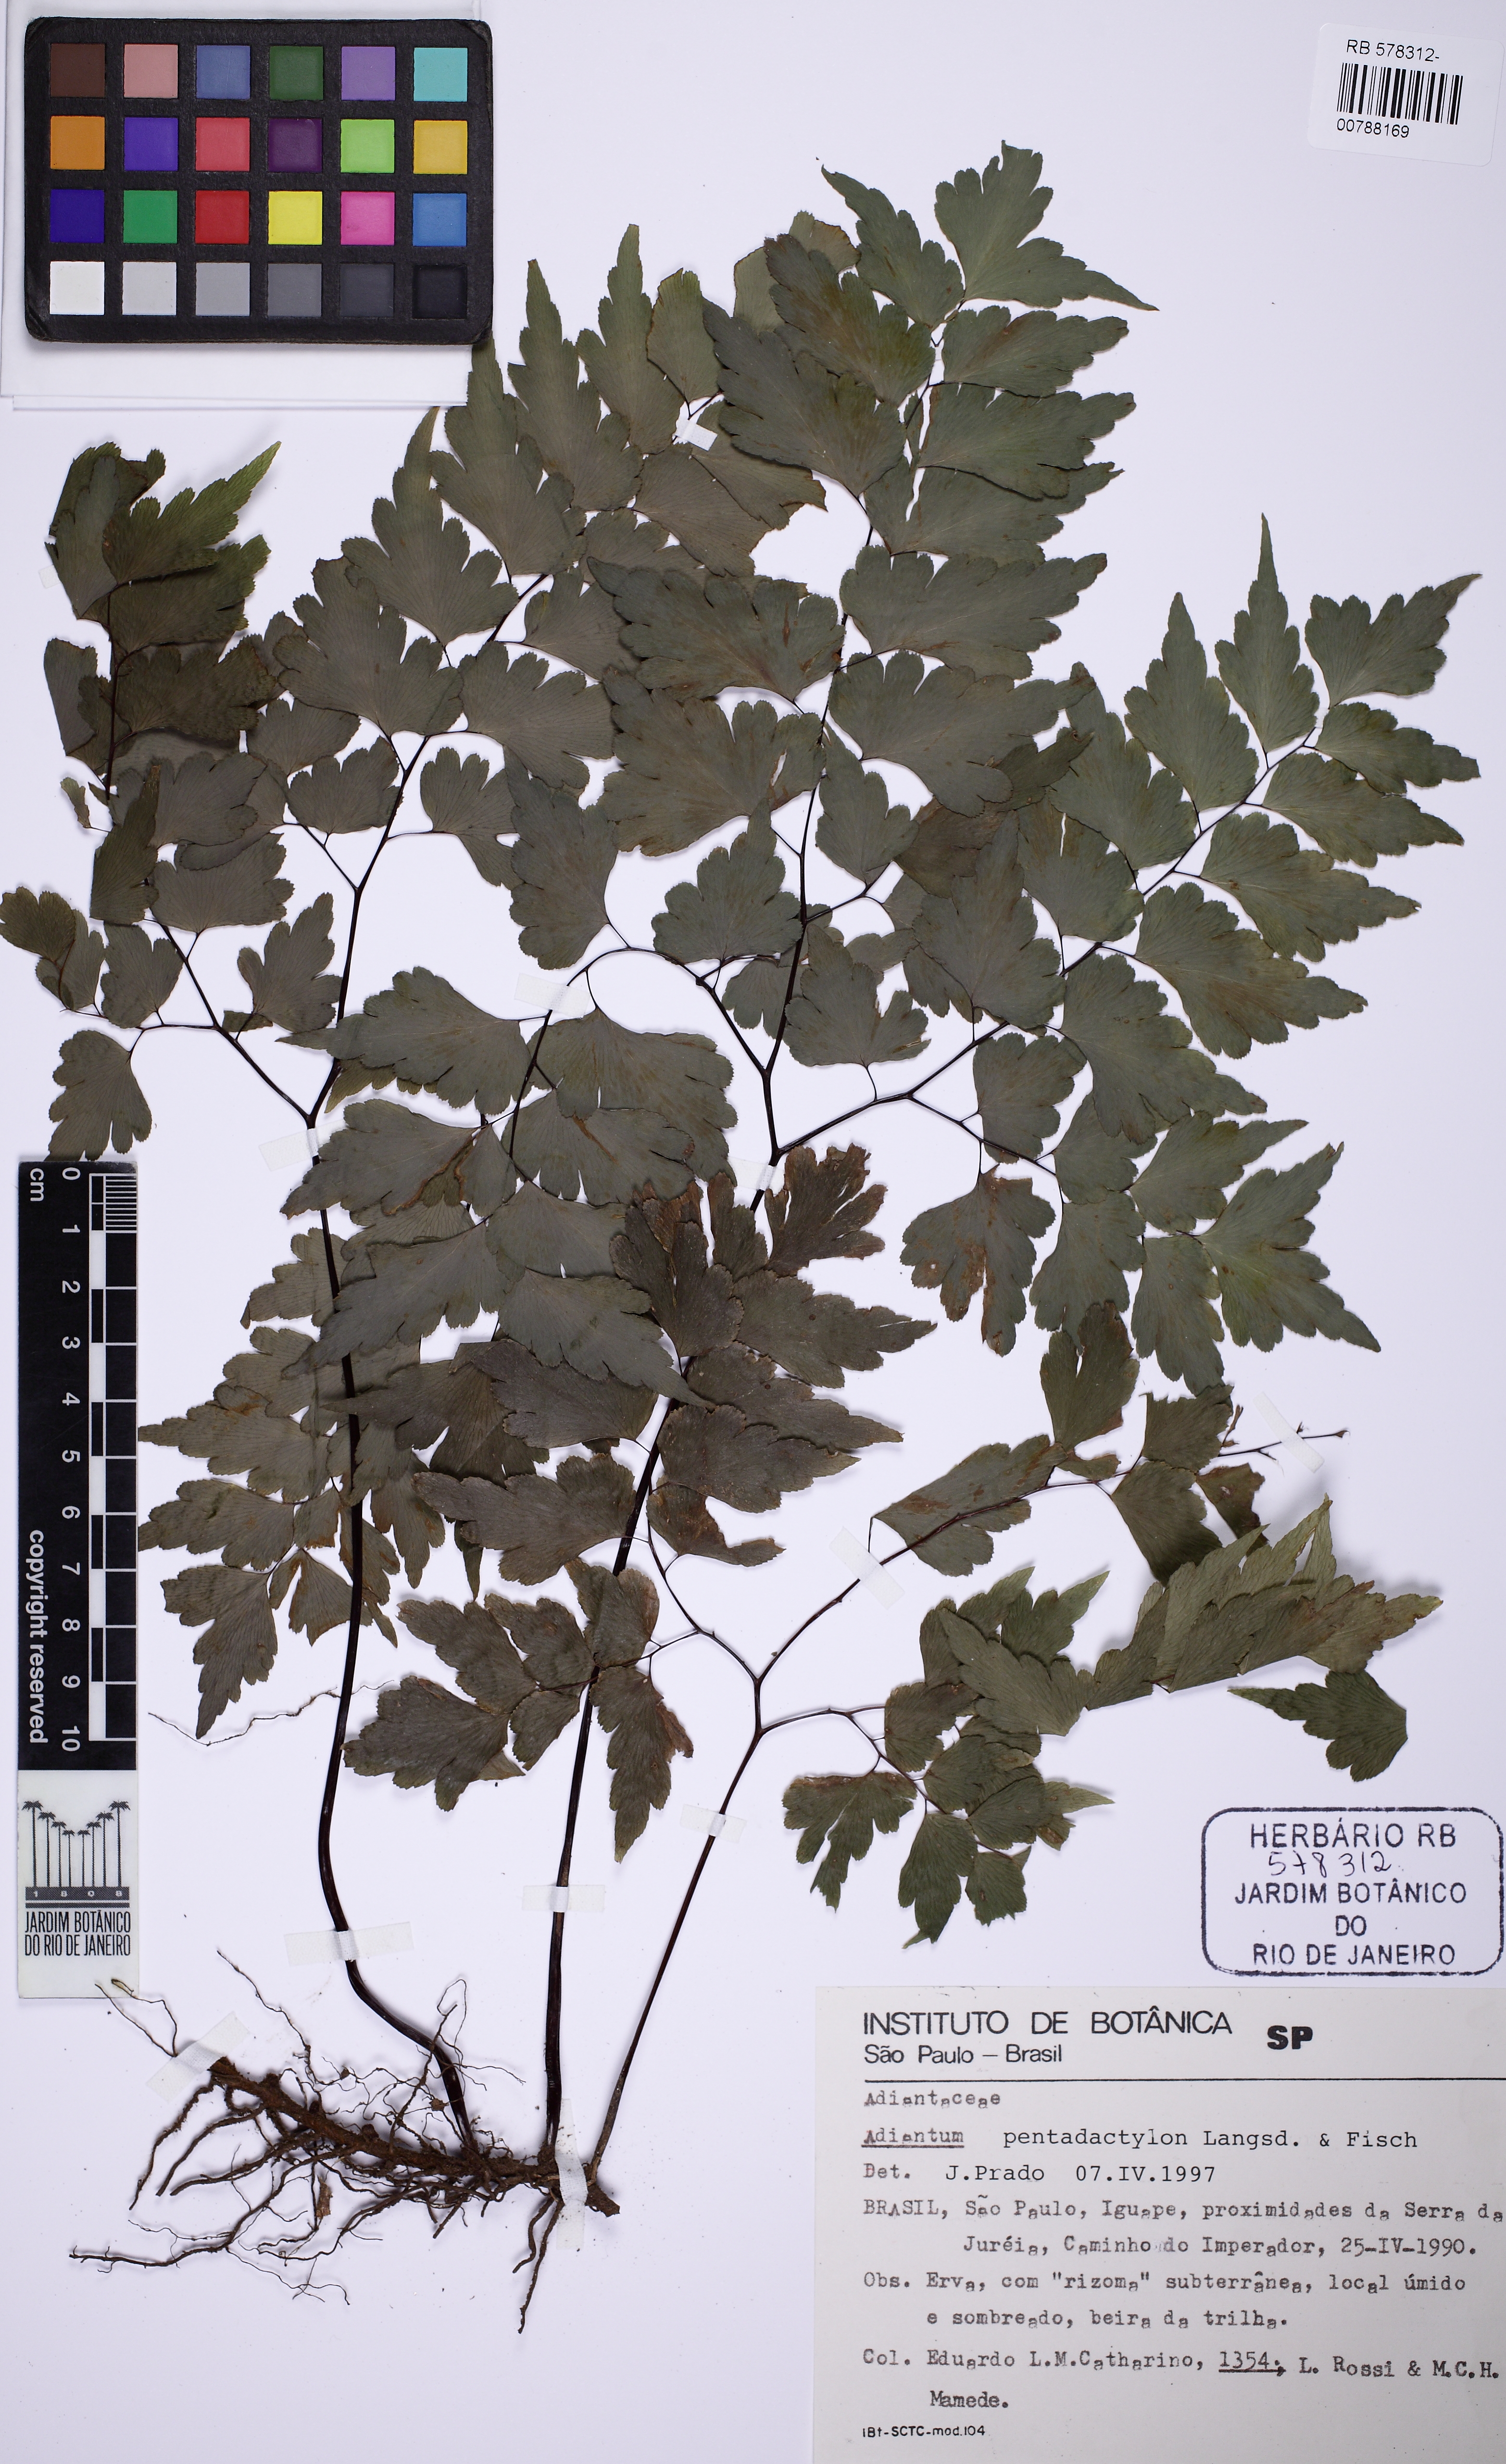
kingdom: Plantae
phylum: Tracheophyta
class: Polypodiopsida
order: Polypodiales
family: Pteridaceae
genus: Adiantum
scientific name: Adiantum pentadactylon
